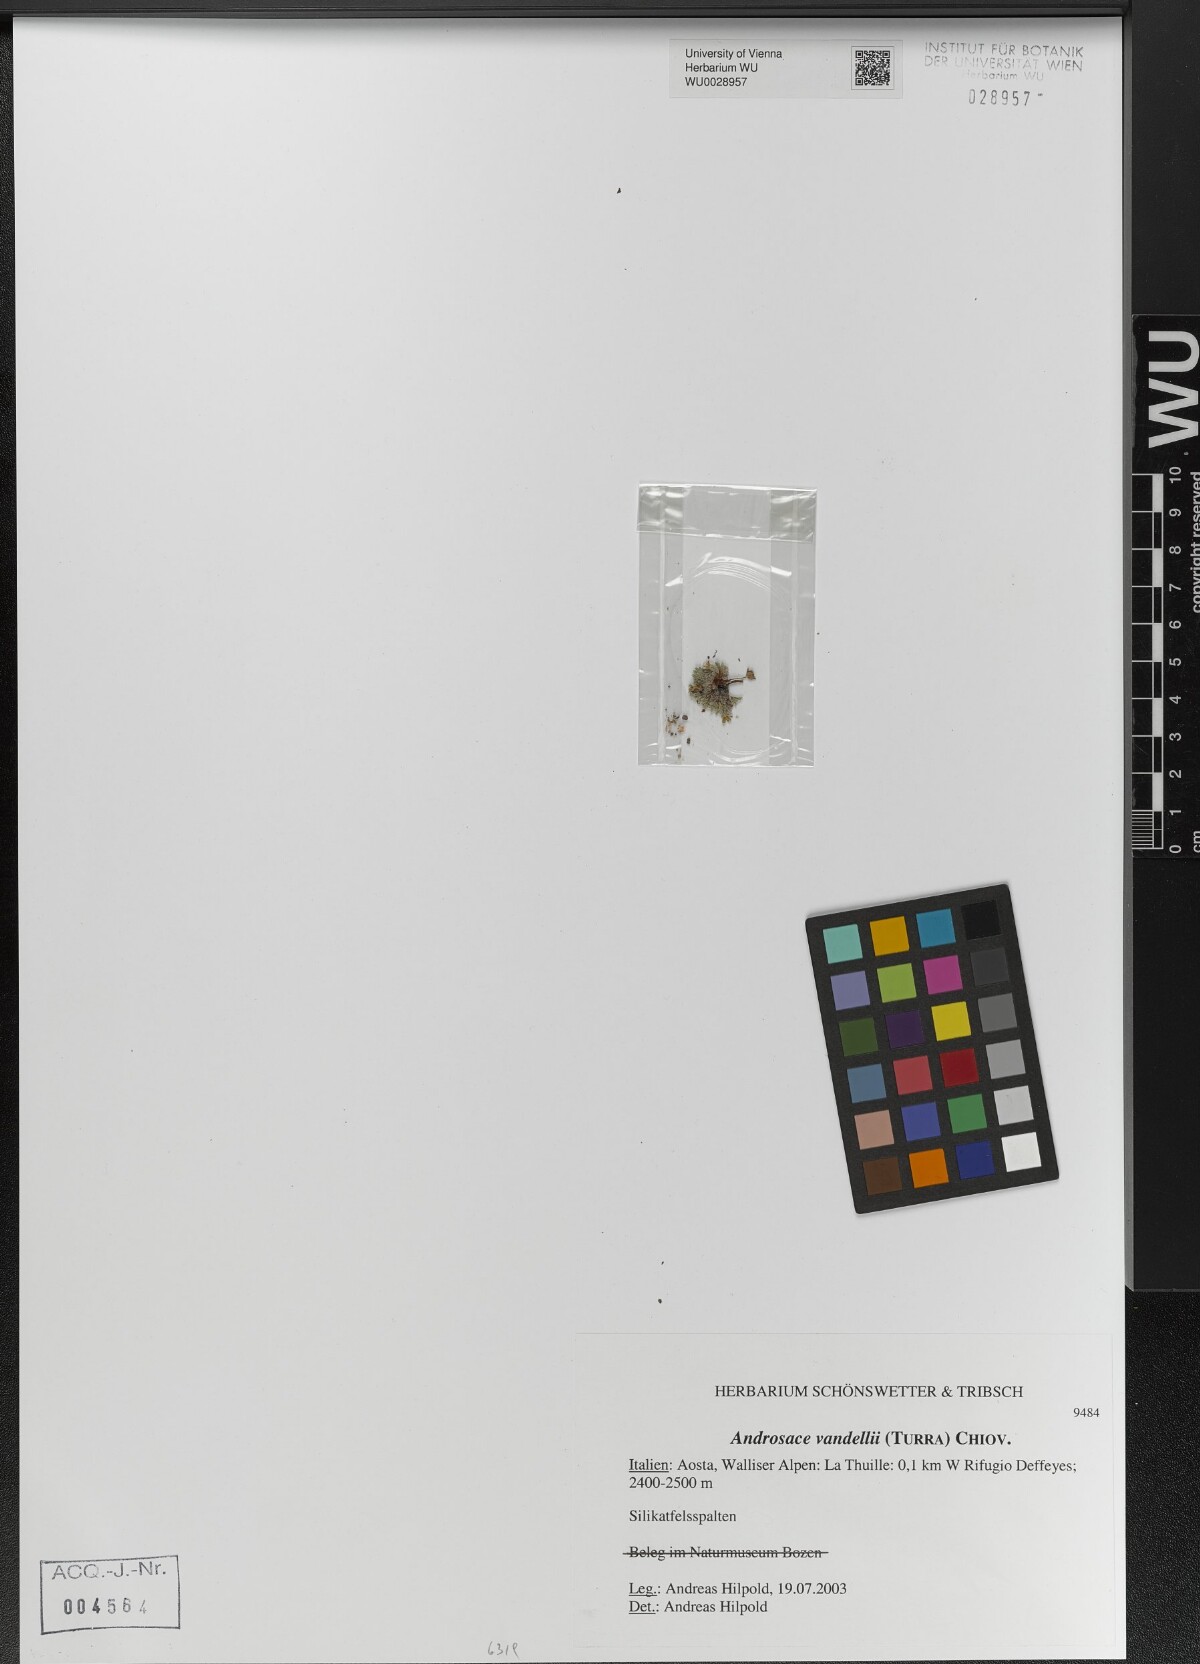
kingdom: Plantae
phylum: Tracheophyta
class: Magnoliopsida
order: Ericales
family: Primulaceae
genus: Androsace
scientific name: Androsace alpina
